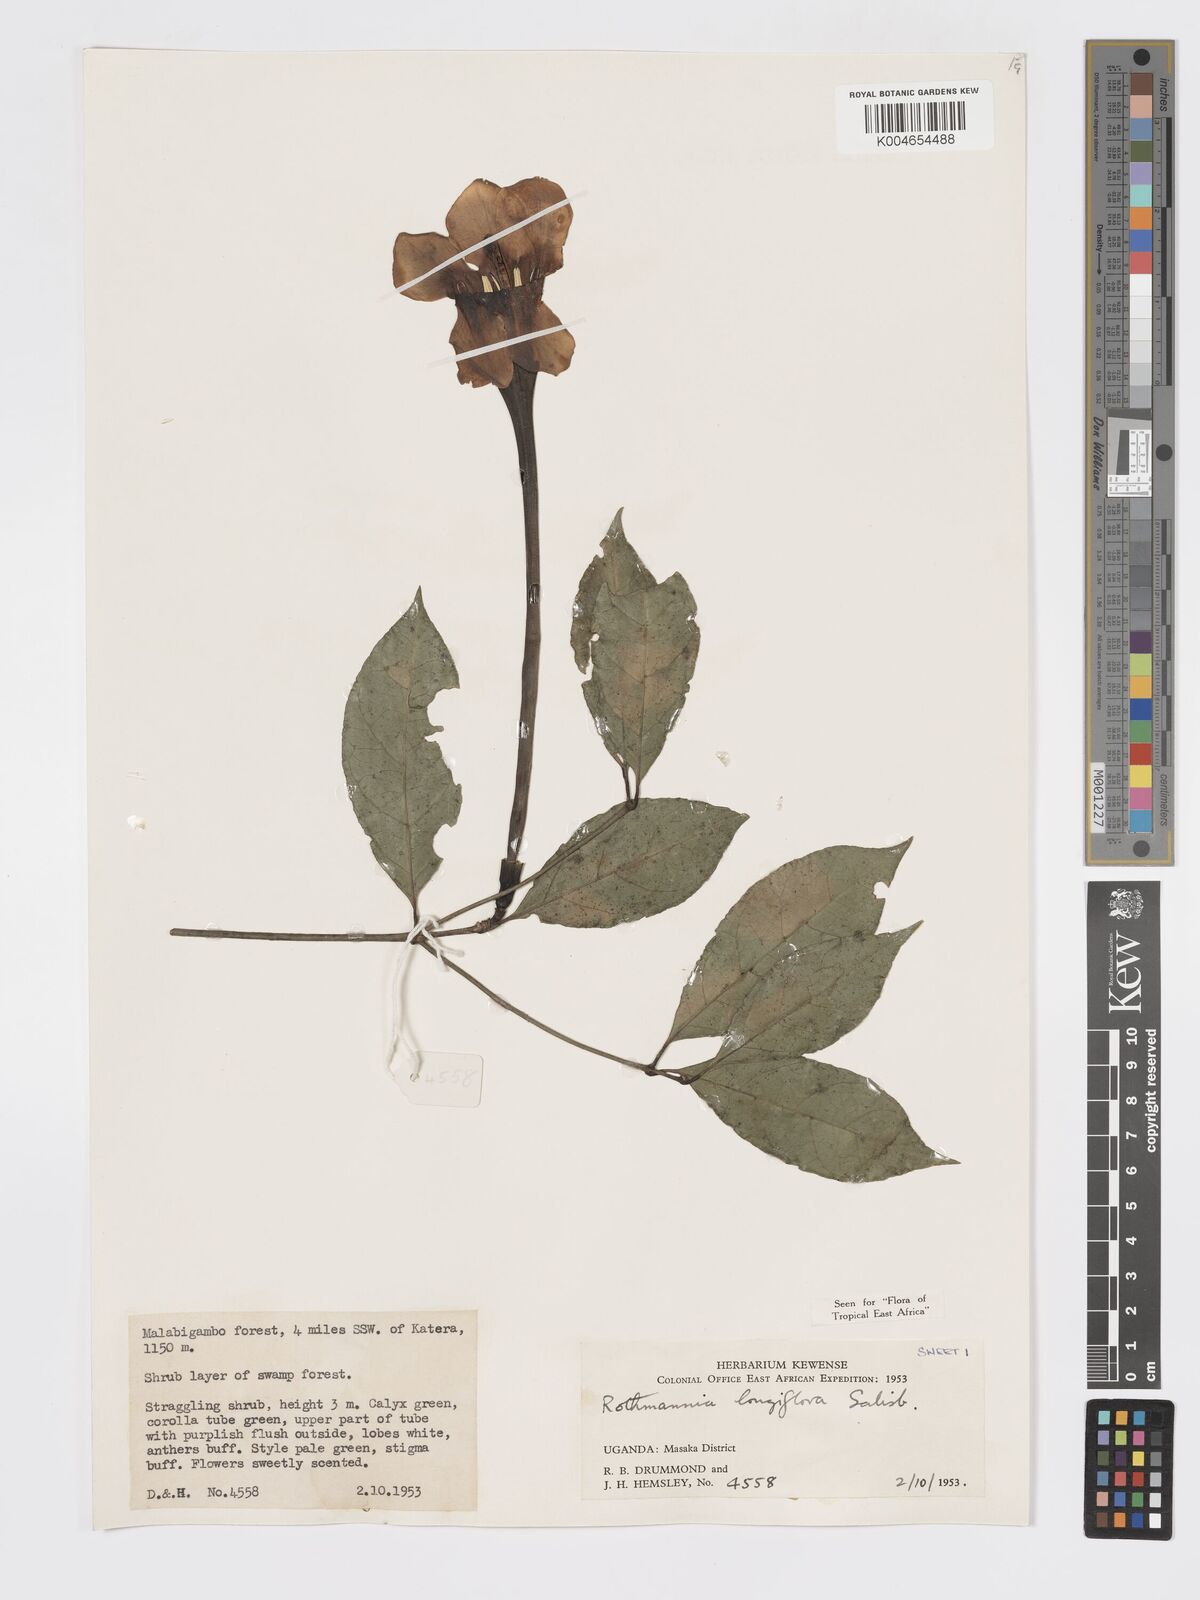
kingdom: Plantae
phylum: Tracheophyta
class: Magnoliopsida
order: Gentianales
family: Rubiaceae
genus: Rothmannia
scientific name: Rothmannia longiflora
